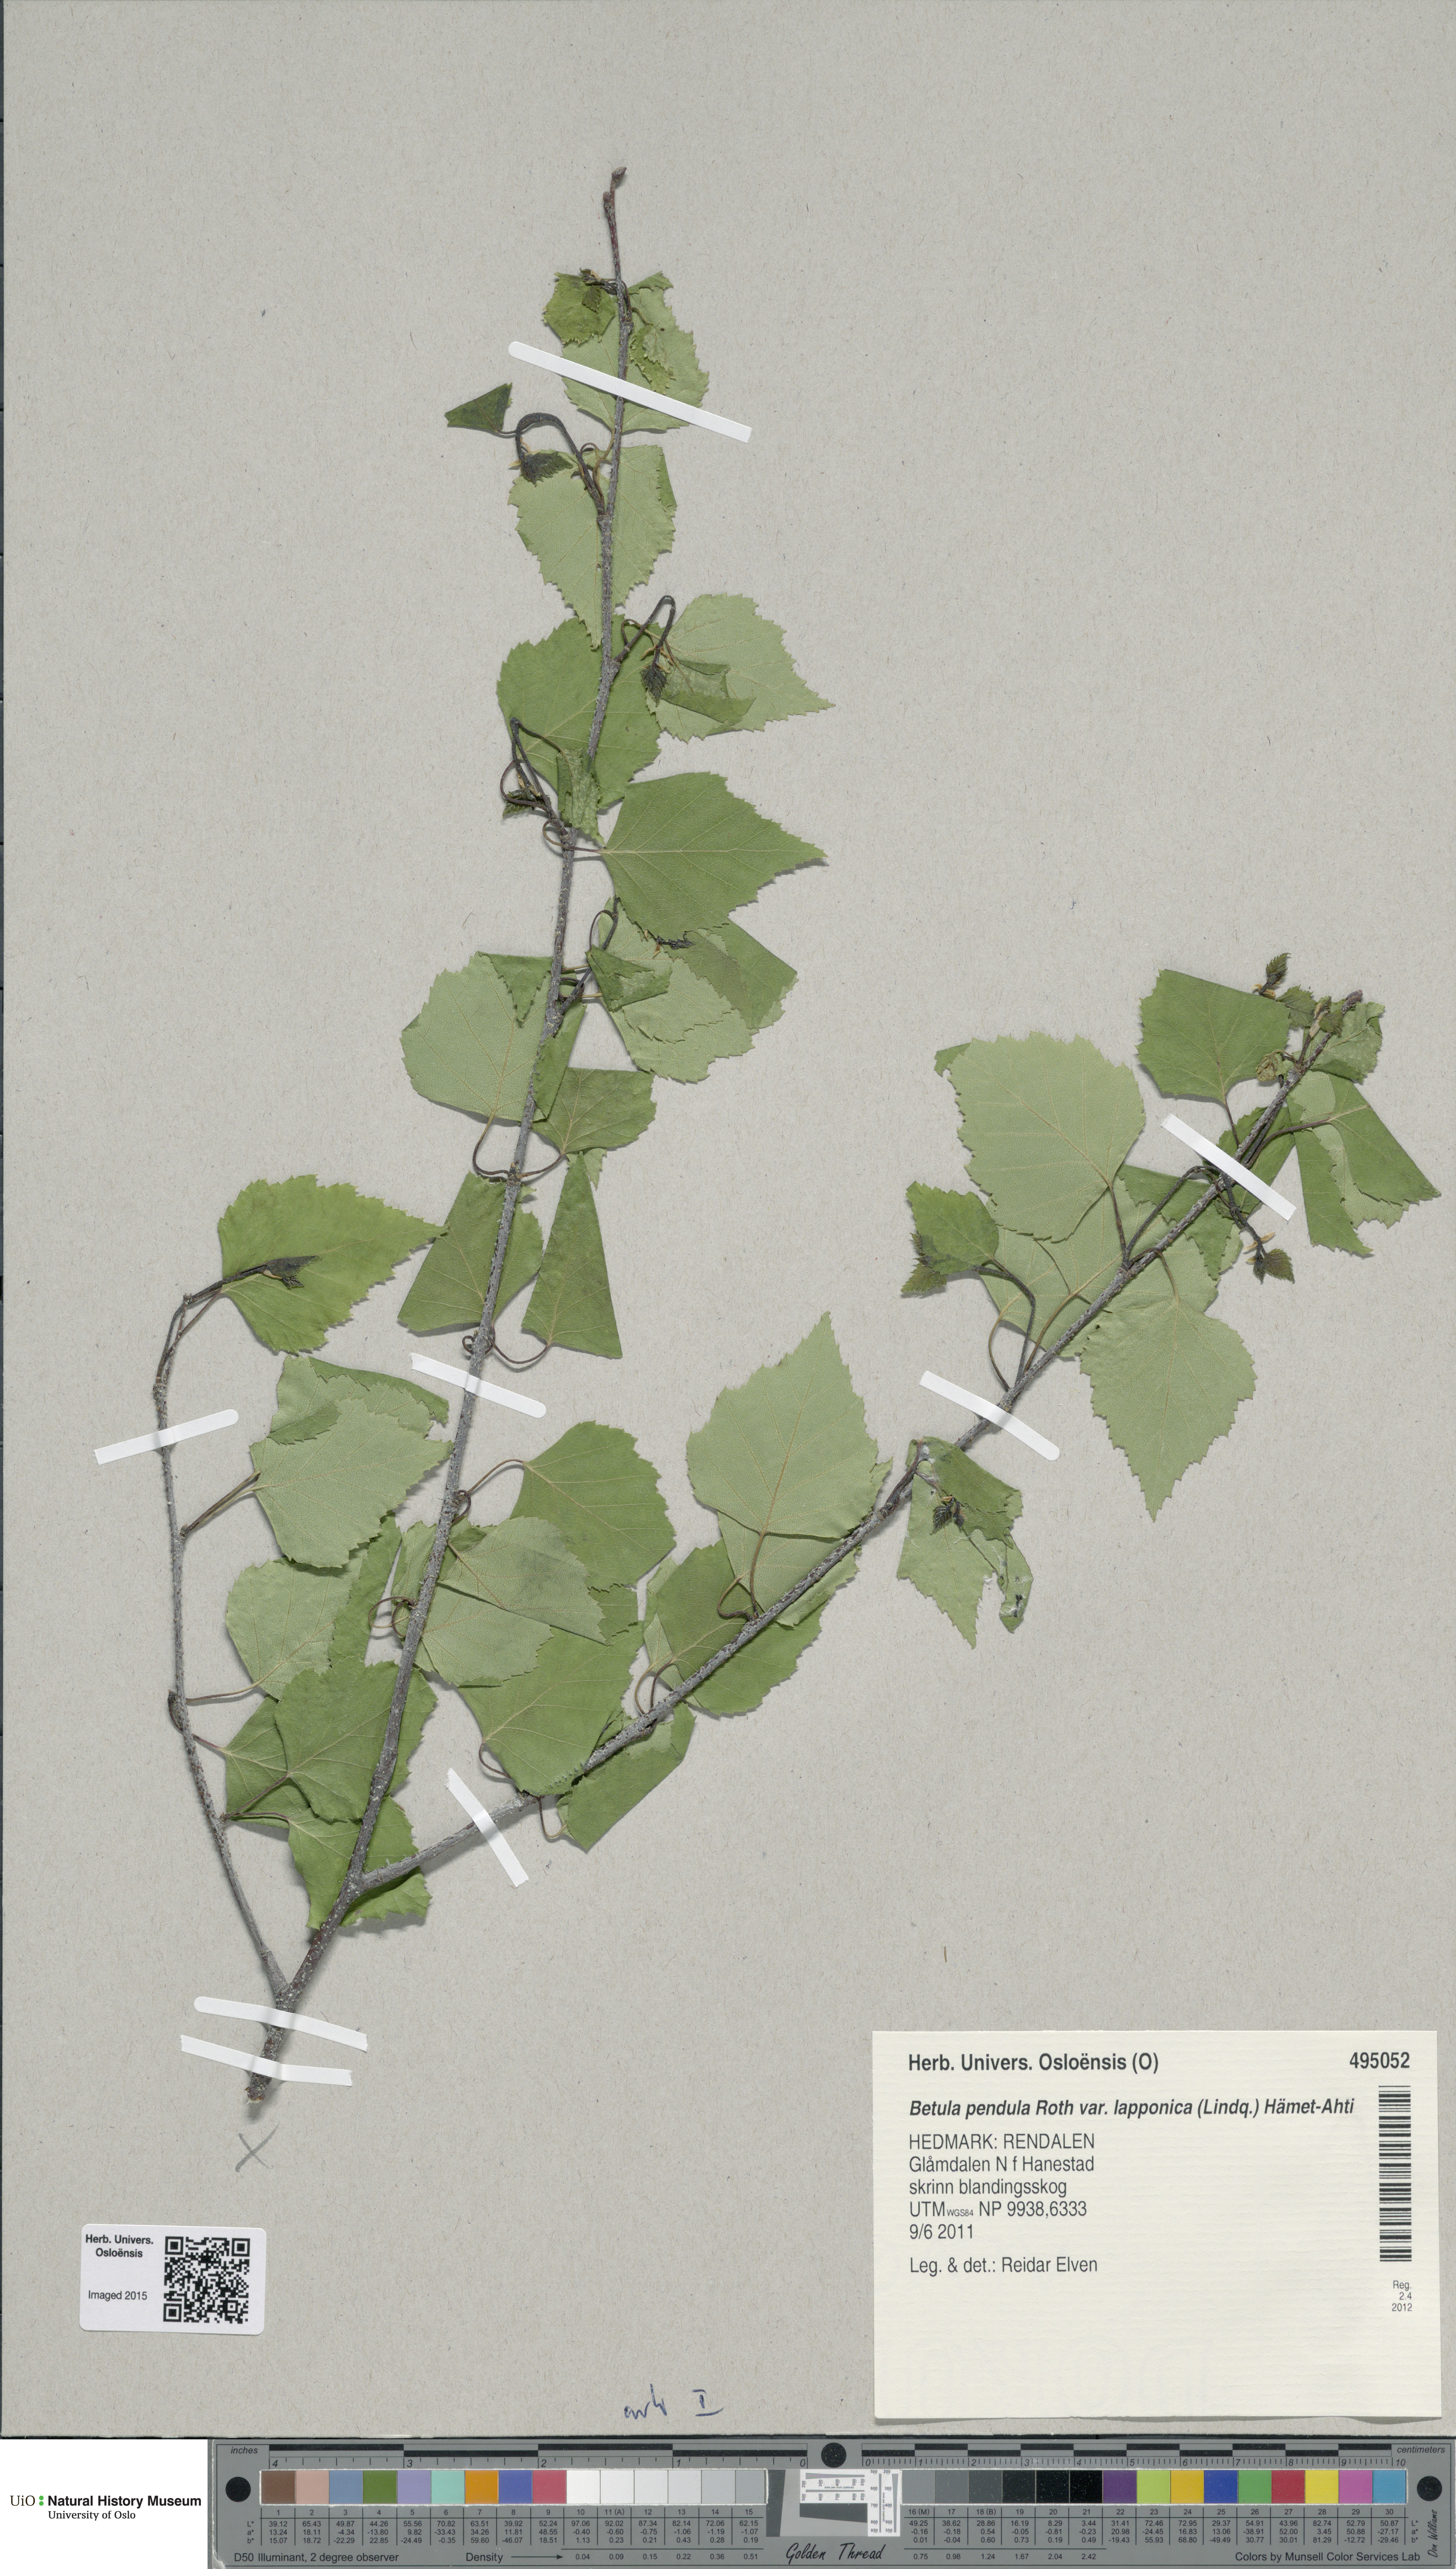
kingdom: Plantae
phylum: Tracheophyta
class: Magnoliopsida
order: Fagales
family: Betulaceae
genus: Betula
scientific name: Betula pendula
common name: Silver birch
